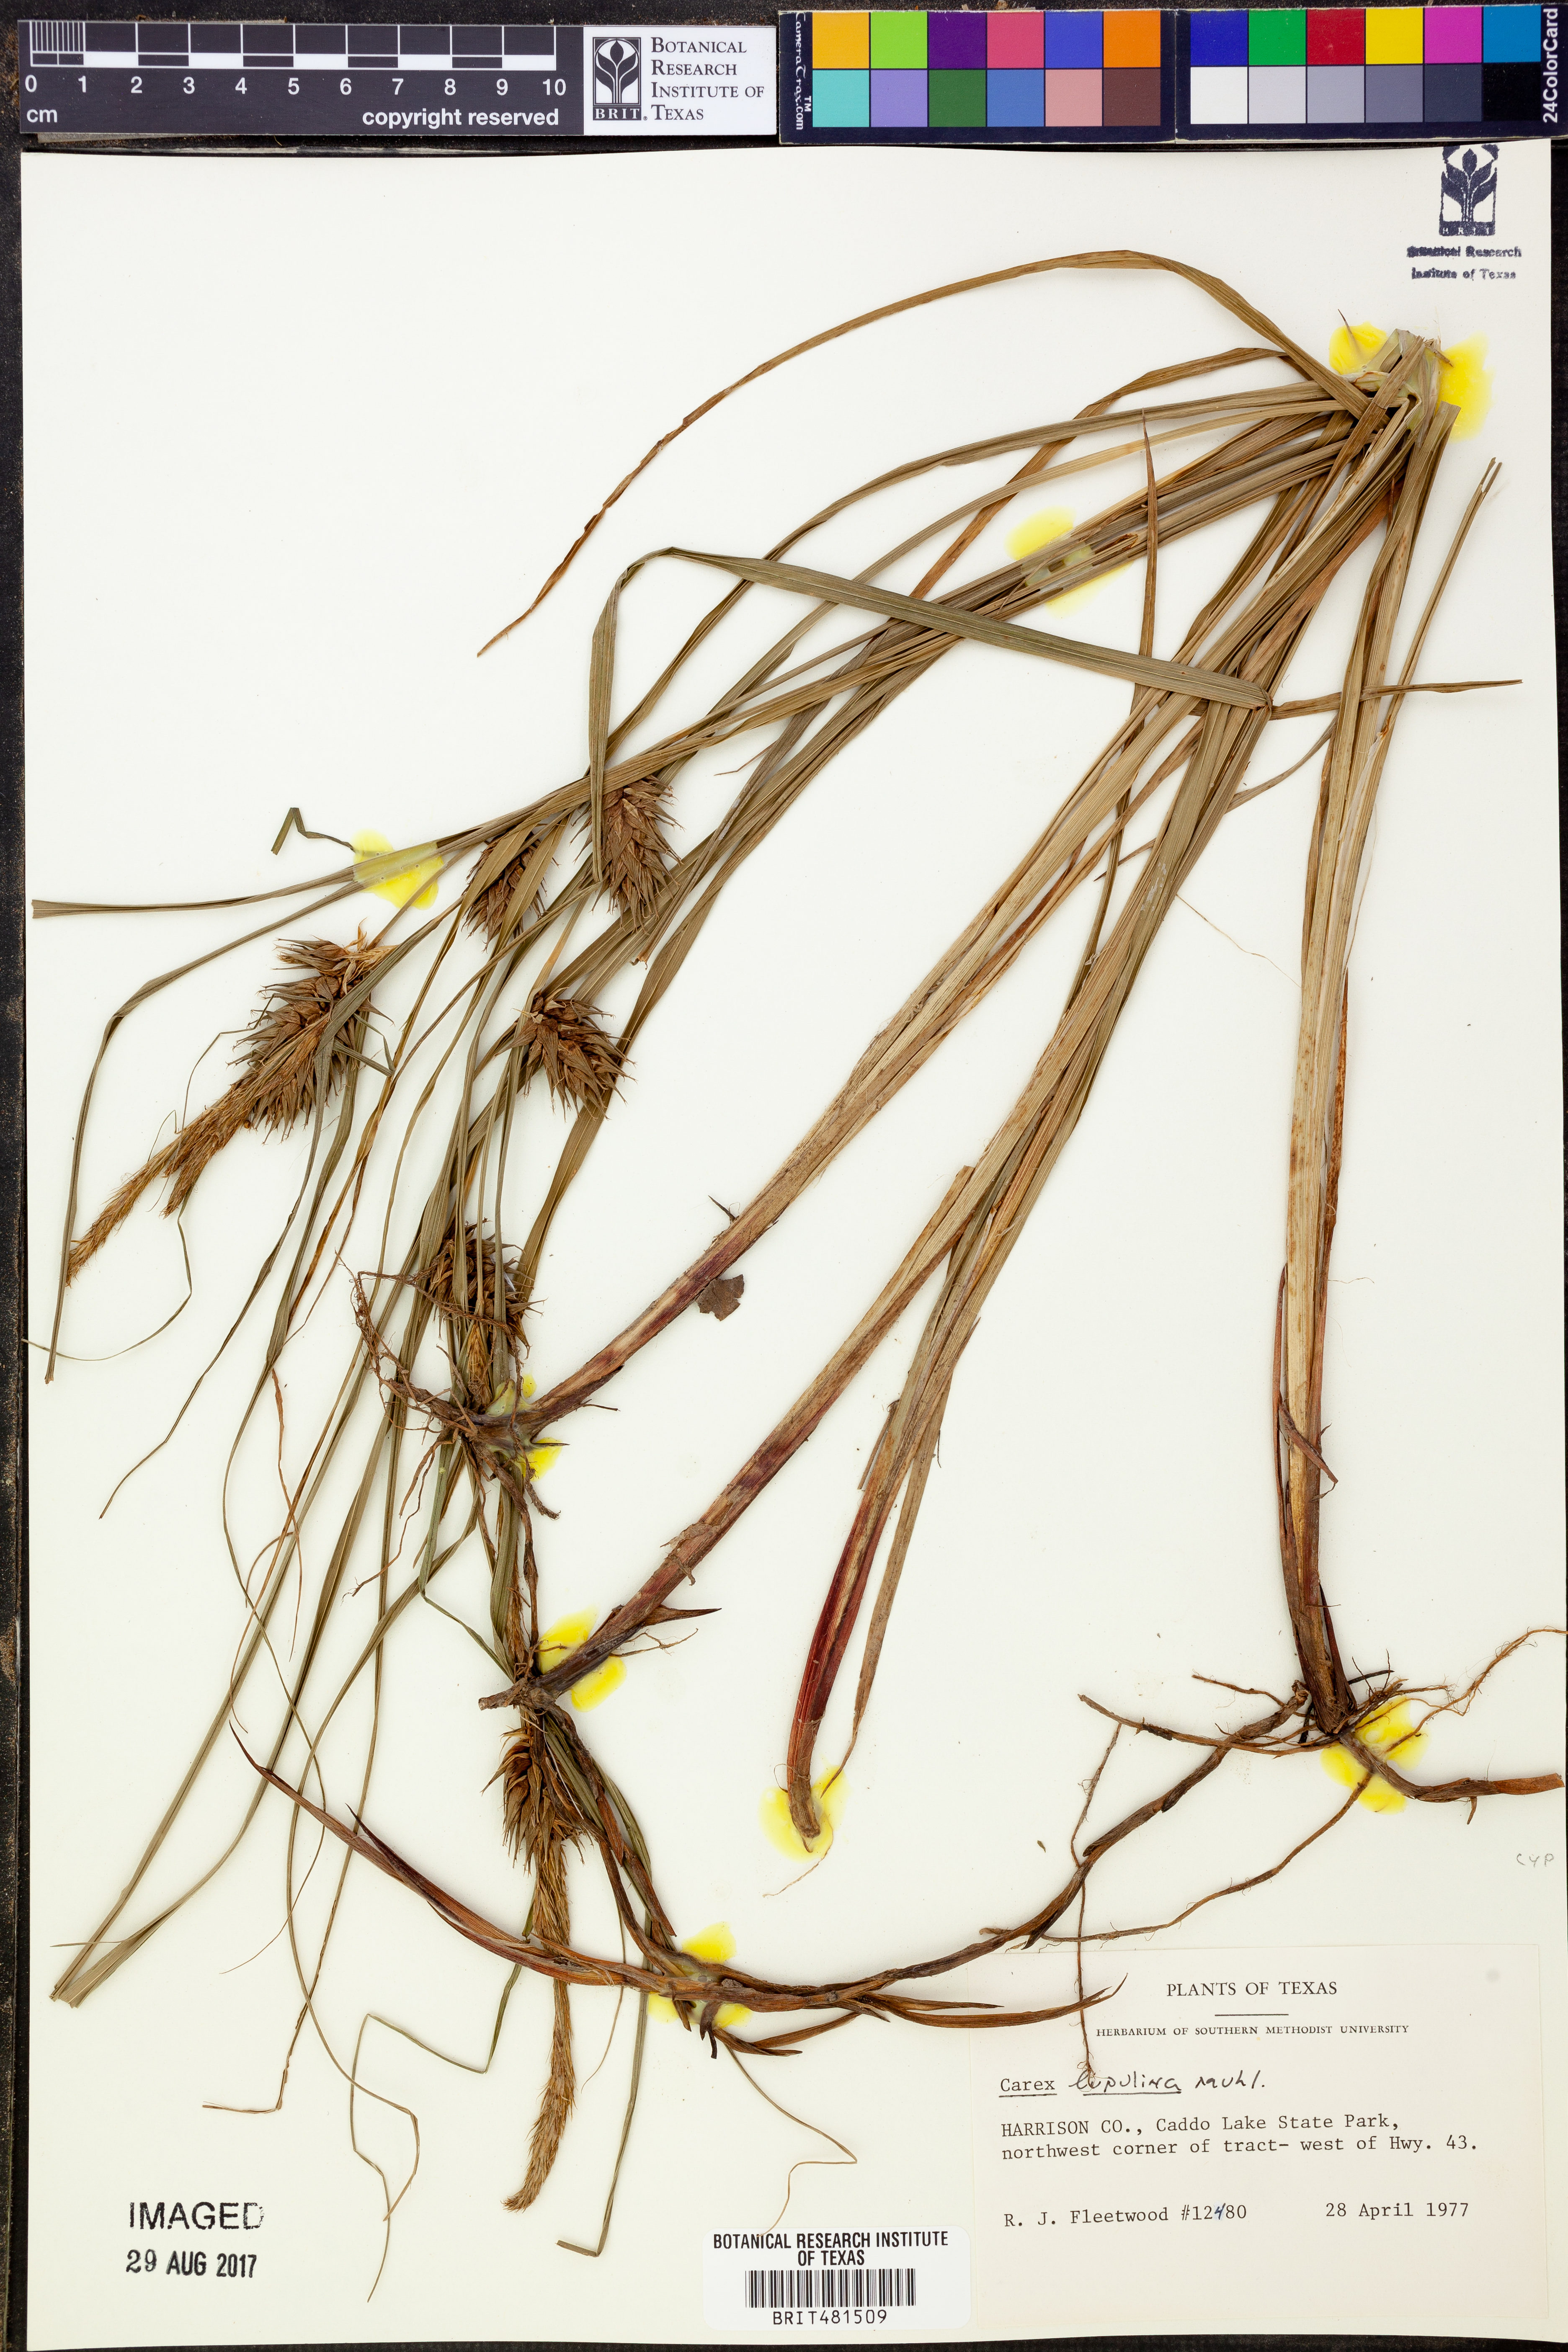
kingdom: Plantae
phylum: Tracheophyta
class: Liliopsida
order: Poales
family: Cyperaceae
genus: Carex
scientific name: Carex lupulina
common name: Hop sedge
